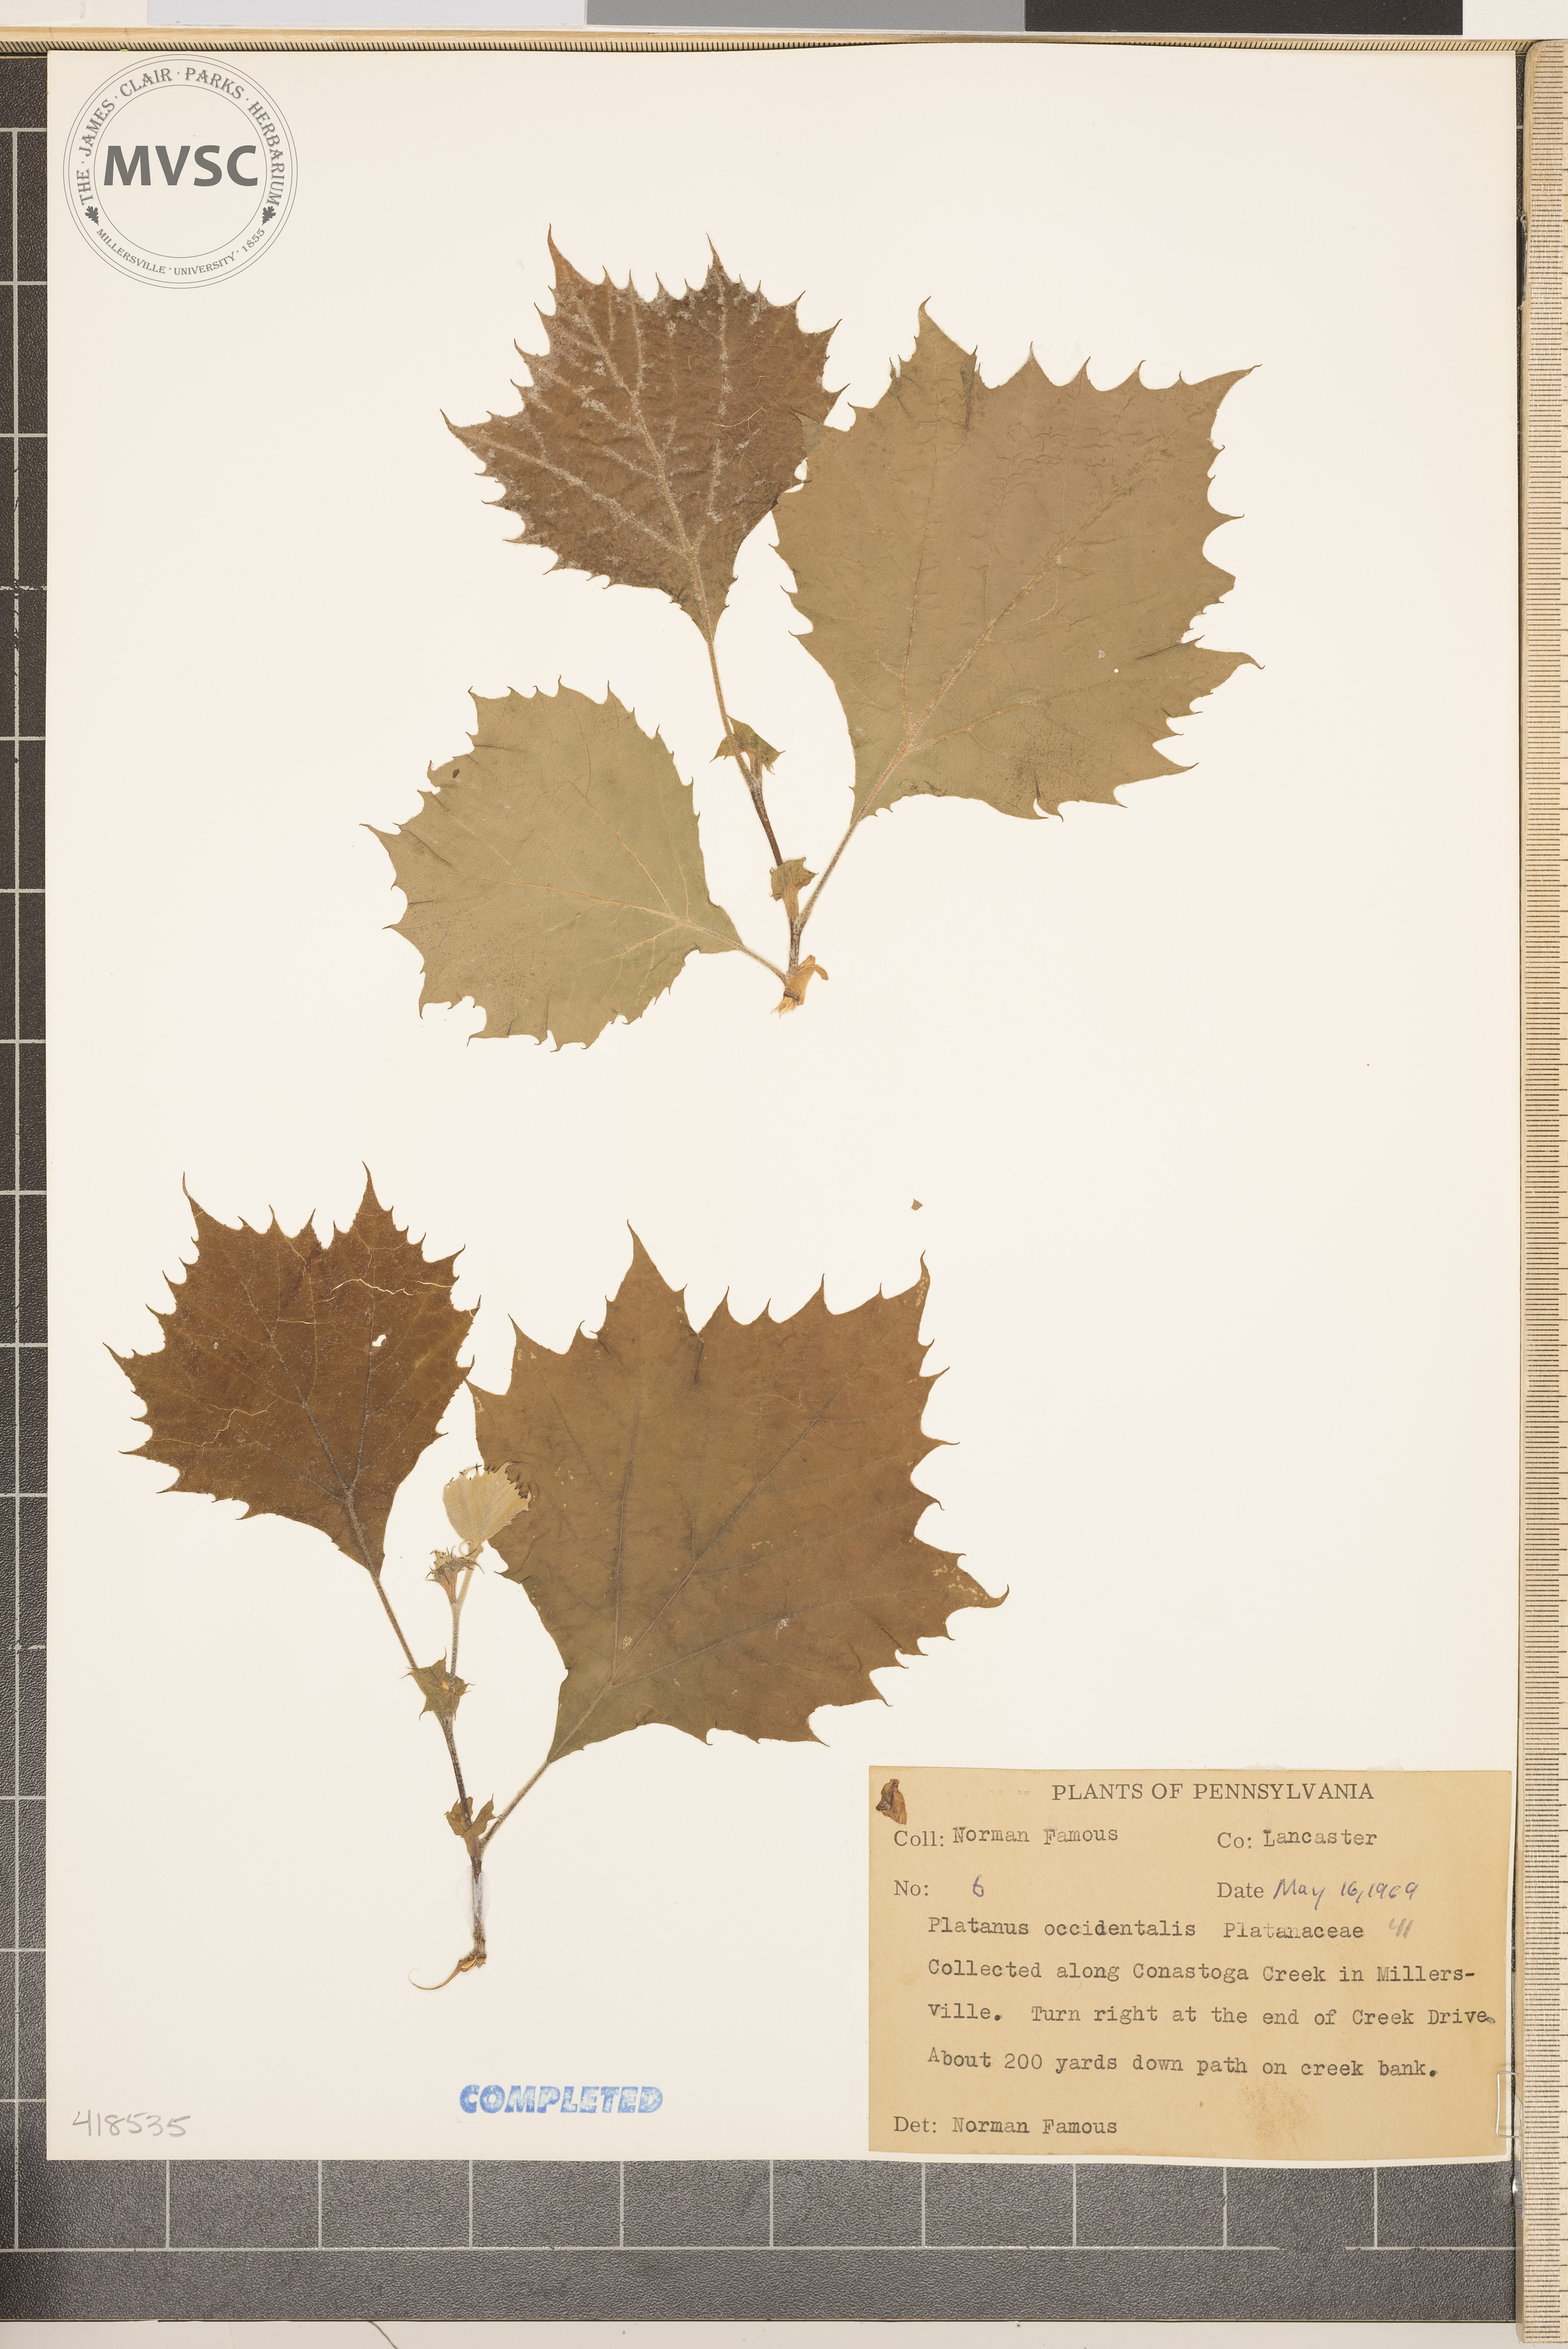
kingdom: Plantae
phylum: Tracheophyta
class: Magnoliopsida
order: Proteales
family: Platanaceae
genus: Platanus
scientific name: Platanus occidentalis
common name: American sycamore
